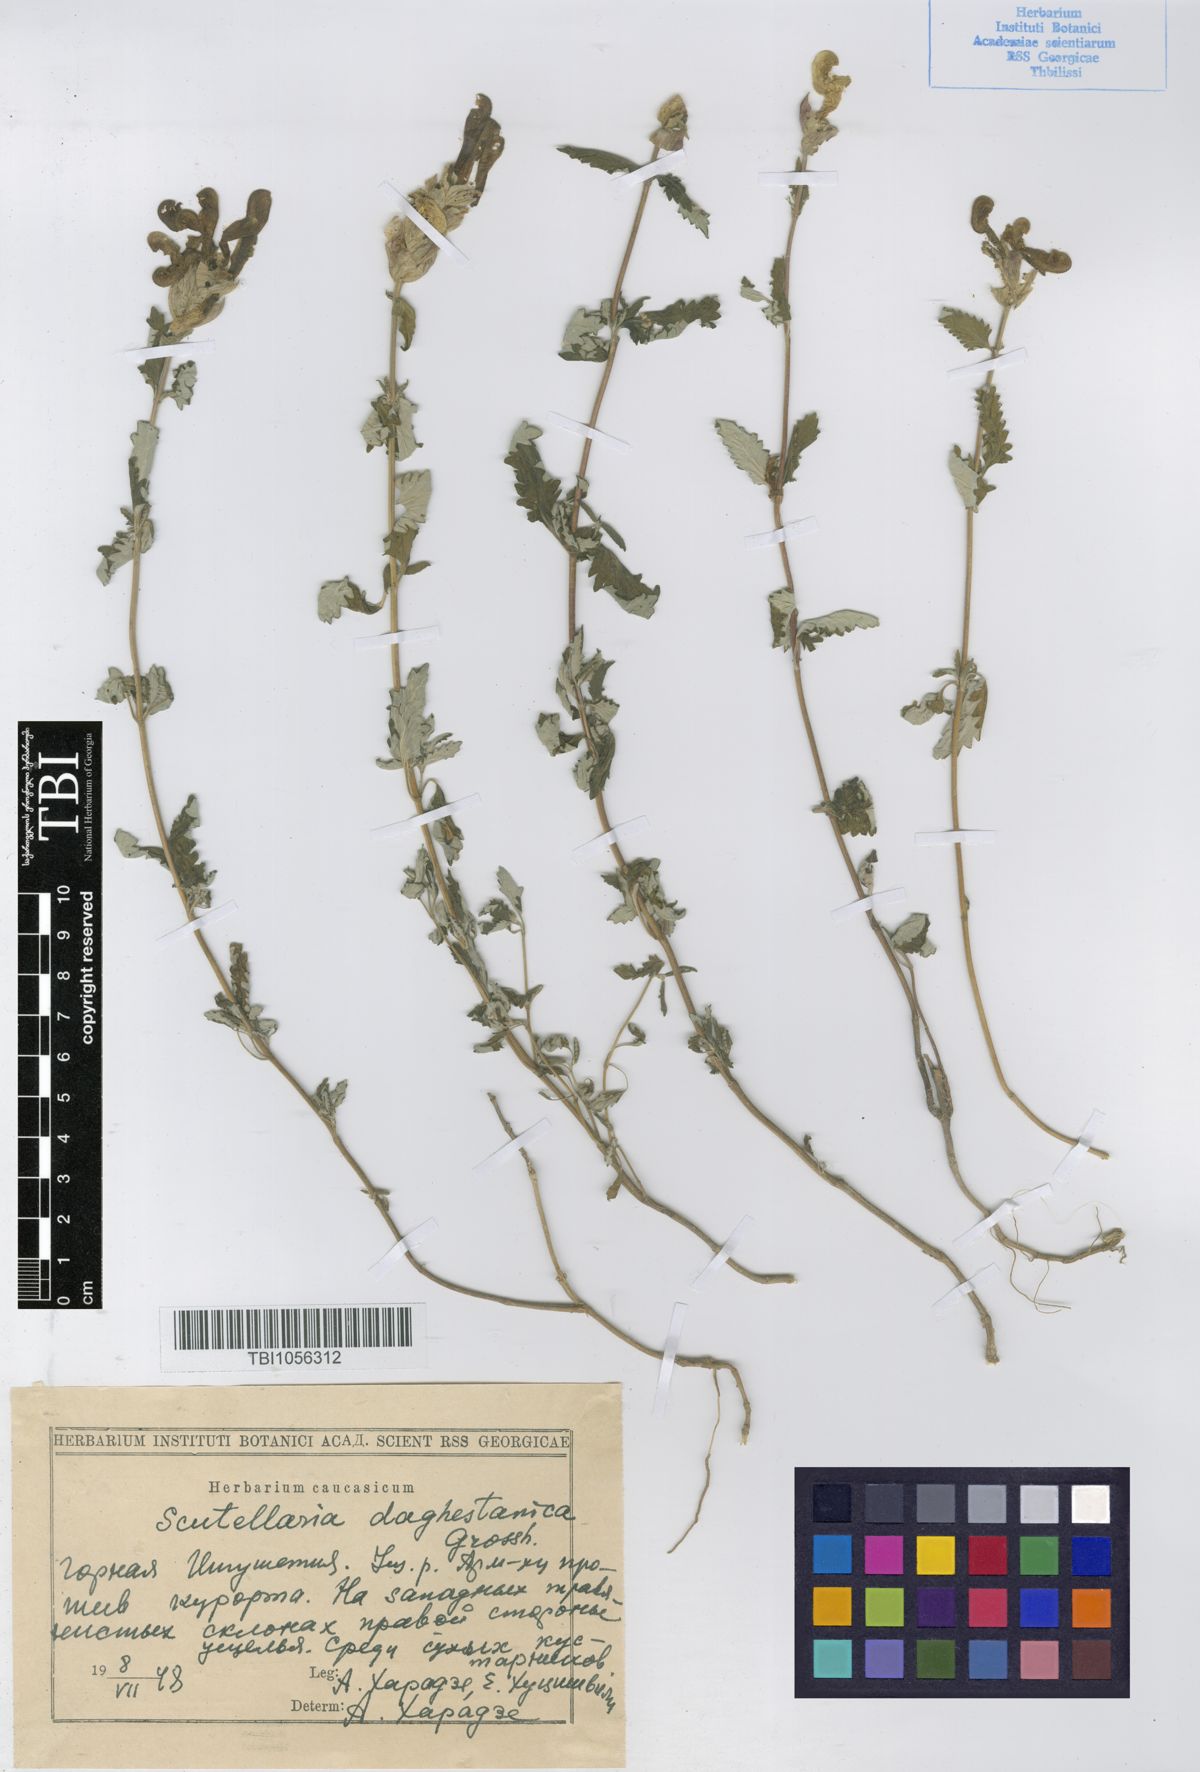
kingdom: Plantae
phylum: Tracheophyta
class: Magnoliopsida
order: Lamiales
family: Lamiaceae
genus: Scutellaria
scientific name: Scutellaria daghestanica
